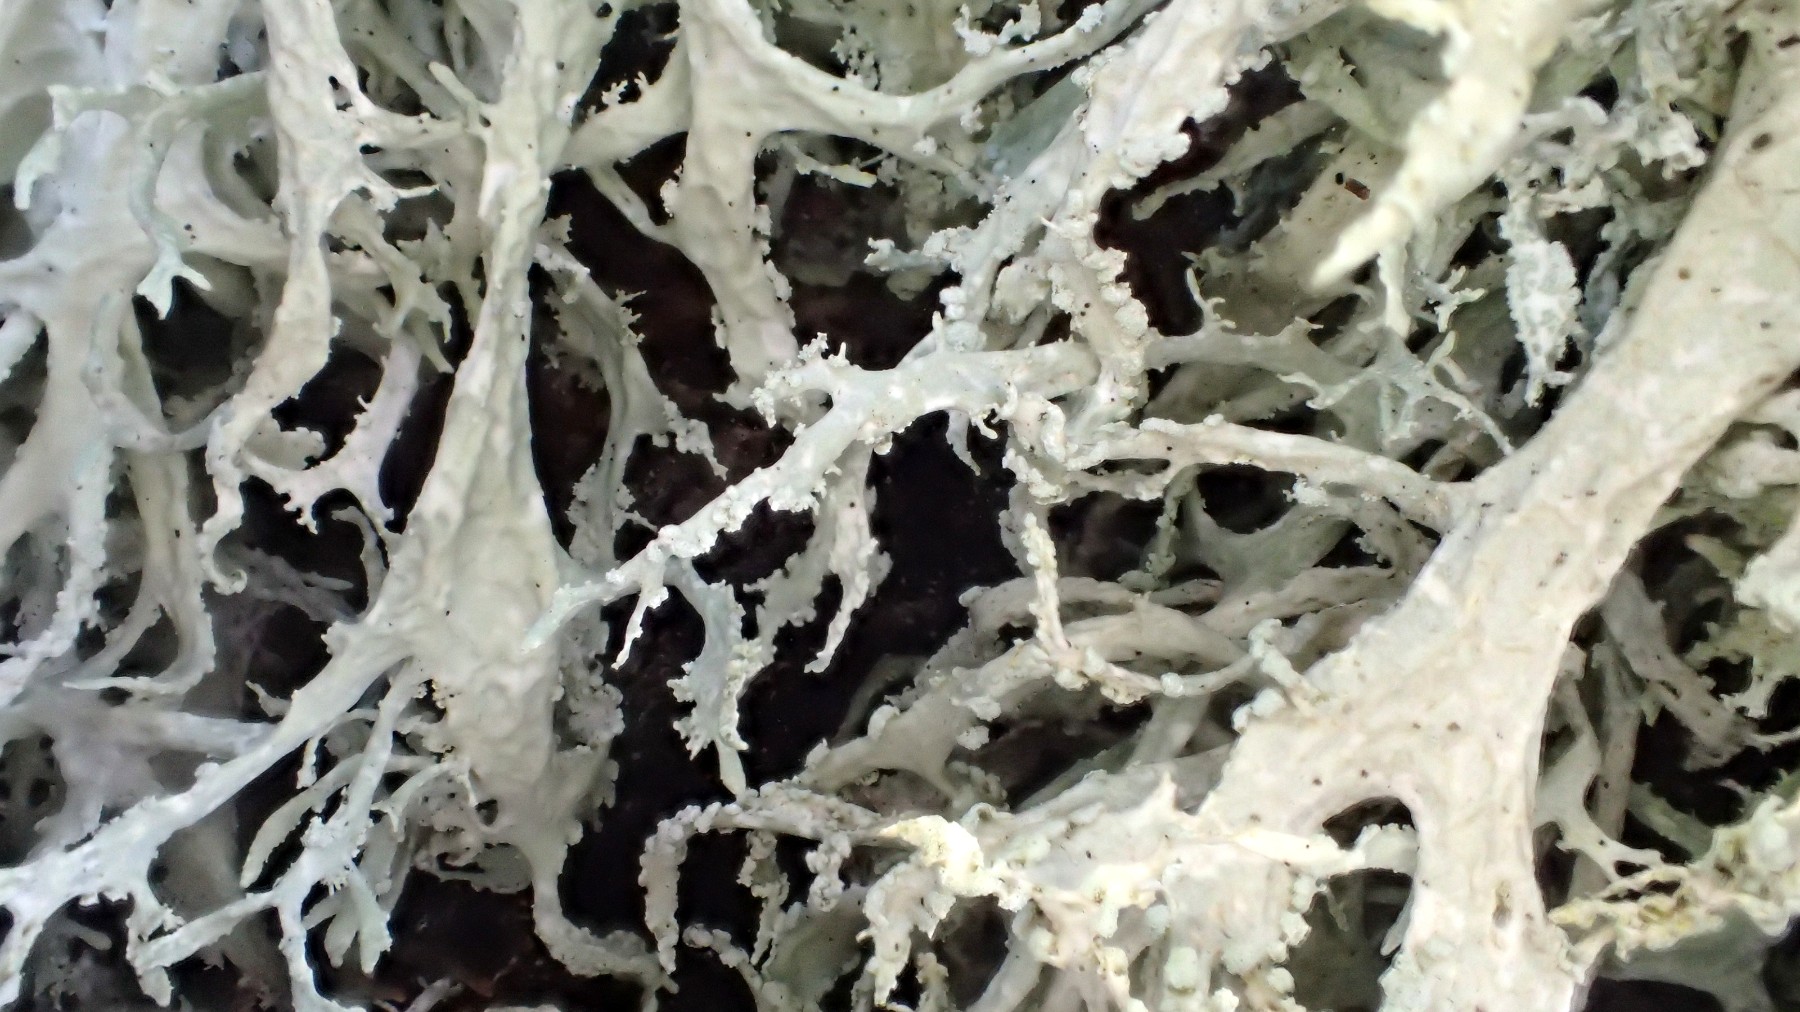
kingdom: Fungi
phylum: Ascomycota
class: Lecanoromycetes
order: Lecanorales
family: Parmeliaceae
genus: Evernia
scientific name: Evernia prunastri
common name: almindelig slåenlav
